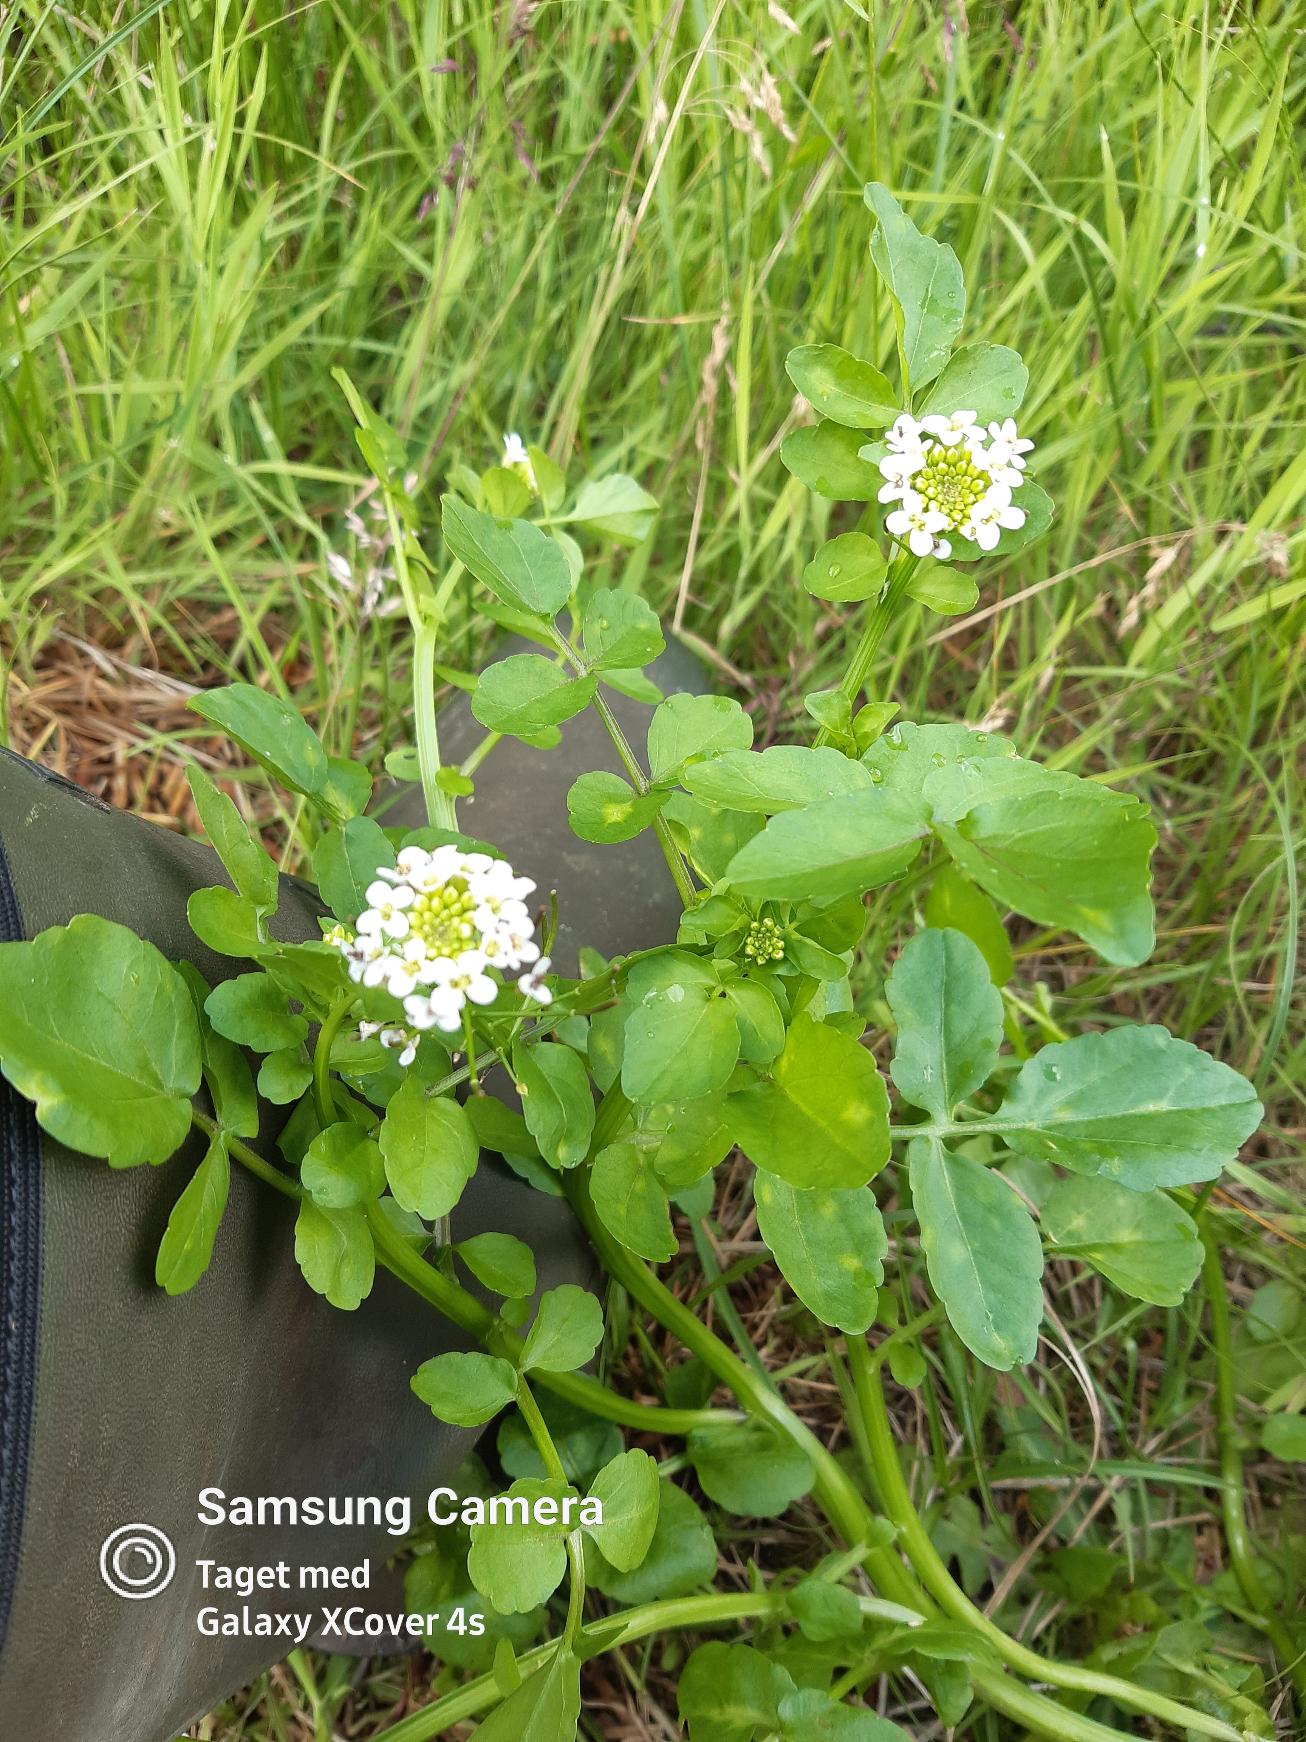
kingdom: Plantae
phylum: Tracheophyta
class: Magnoliopsida
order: Brassicales
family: Brassicaceae
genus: Nasturtium
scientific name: Nasturtium
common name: Brøndkarseslægten
